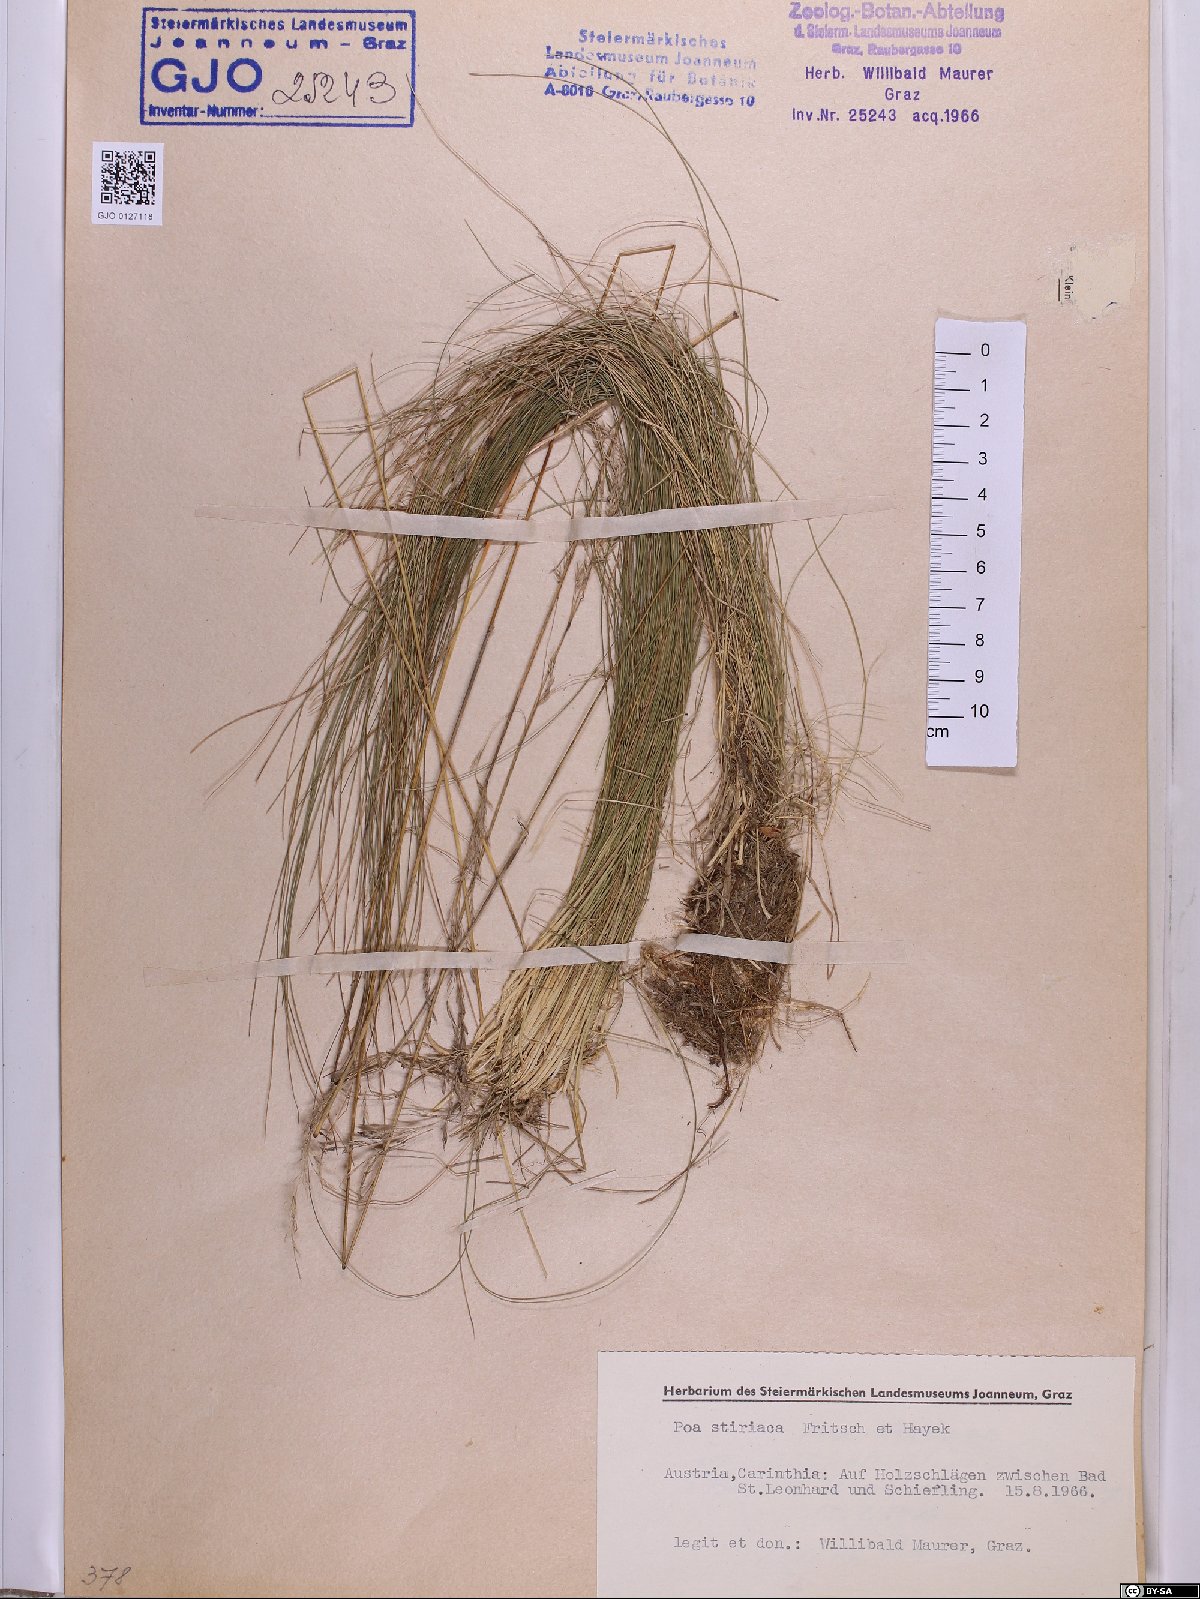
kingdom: Plantae
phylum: Tracheophyta
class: Liliopsida
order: Poales
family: Poaceae
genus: Poa
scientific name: Poa stiriaca
